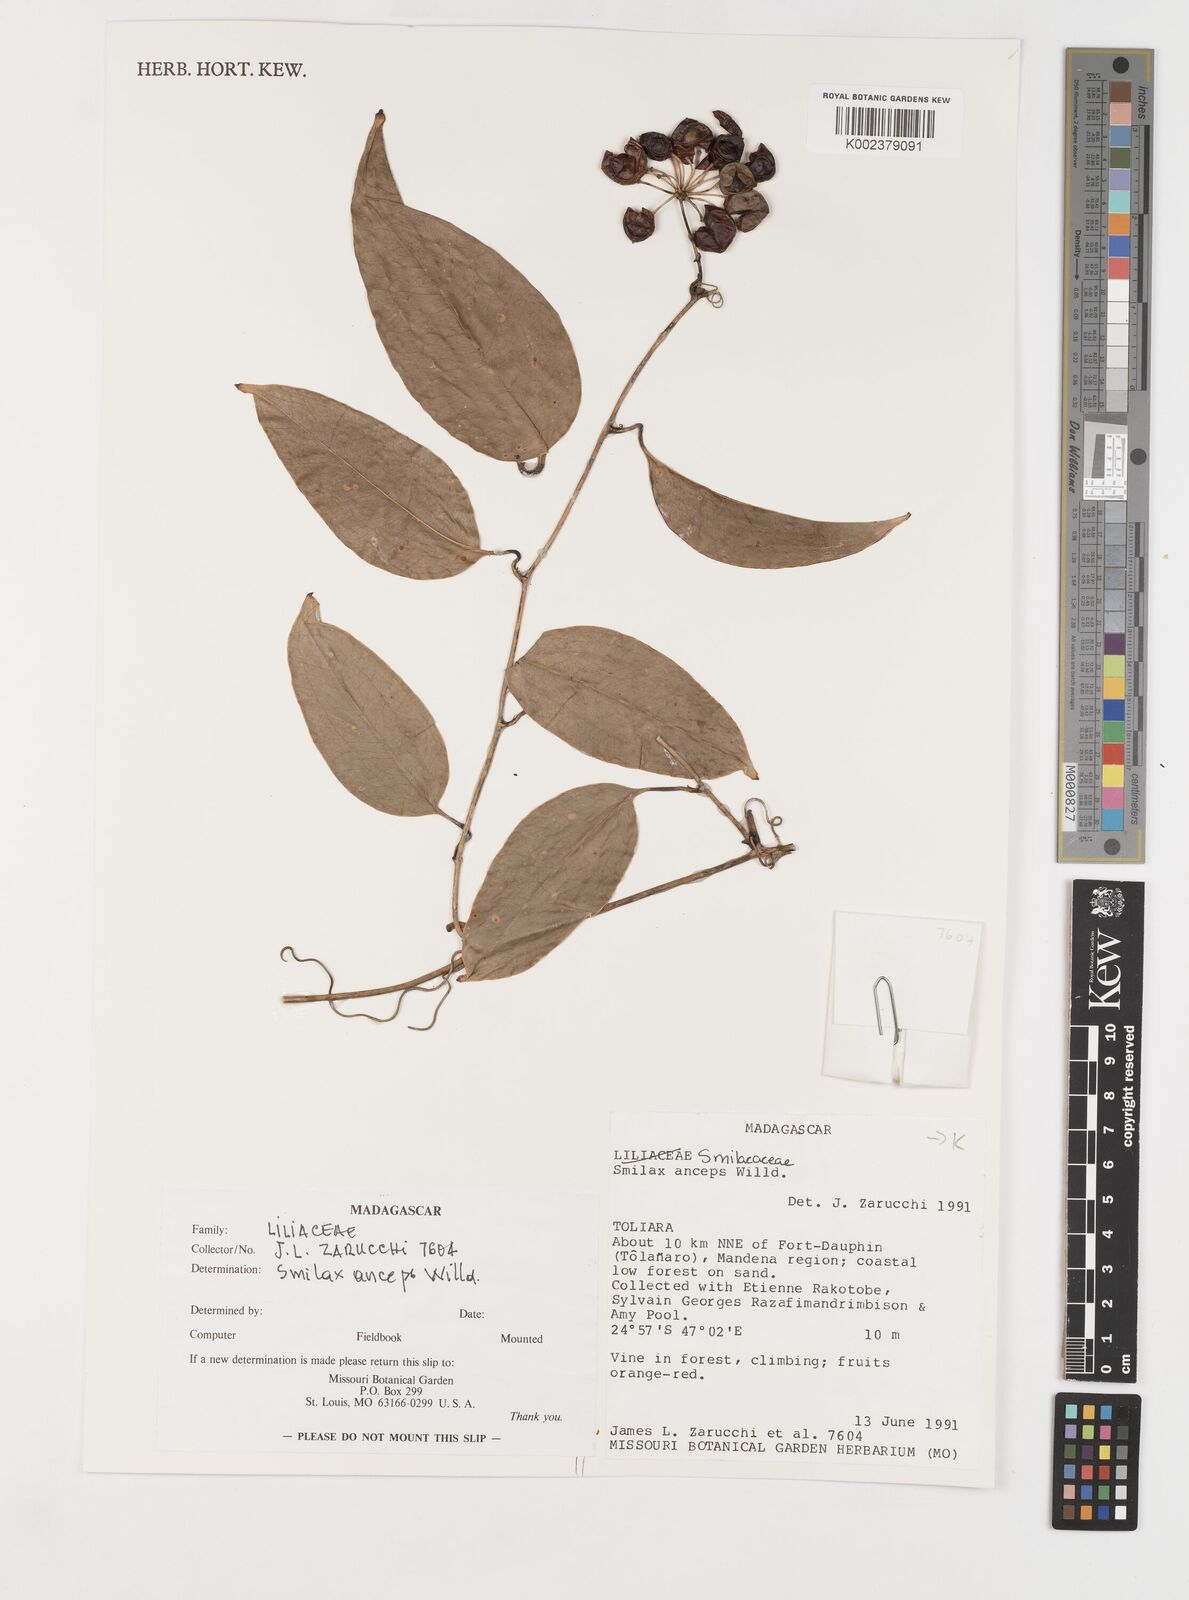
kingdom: Plantae
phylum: Tracheophyta
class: Liliopsida
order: Liliales
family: Smilacaceae
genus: Smilax
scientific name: Smilax anceps
